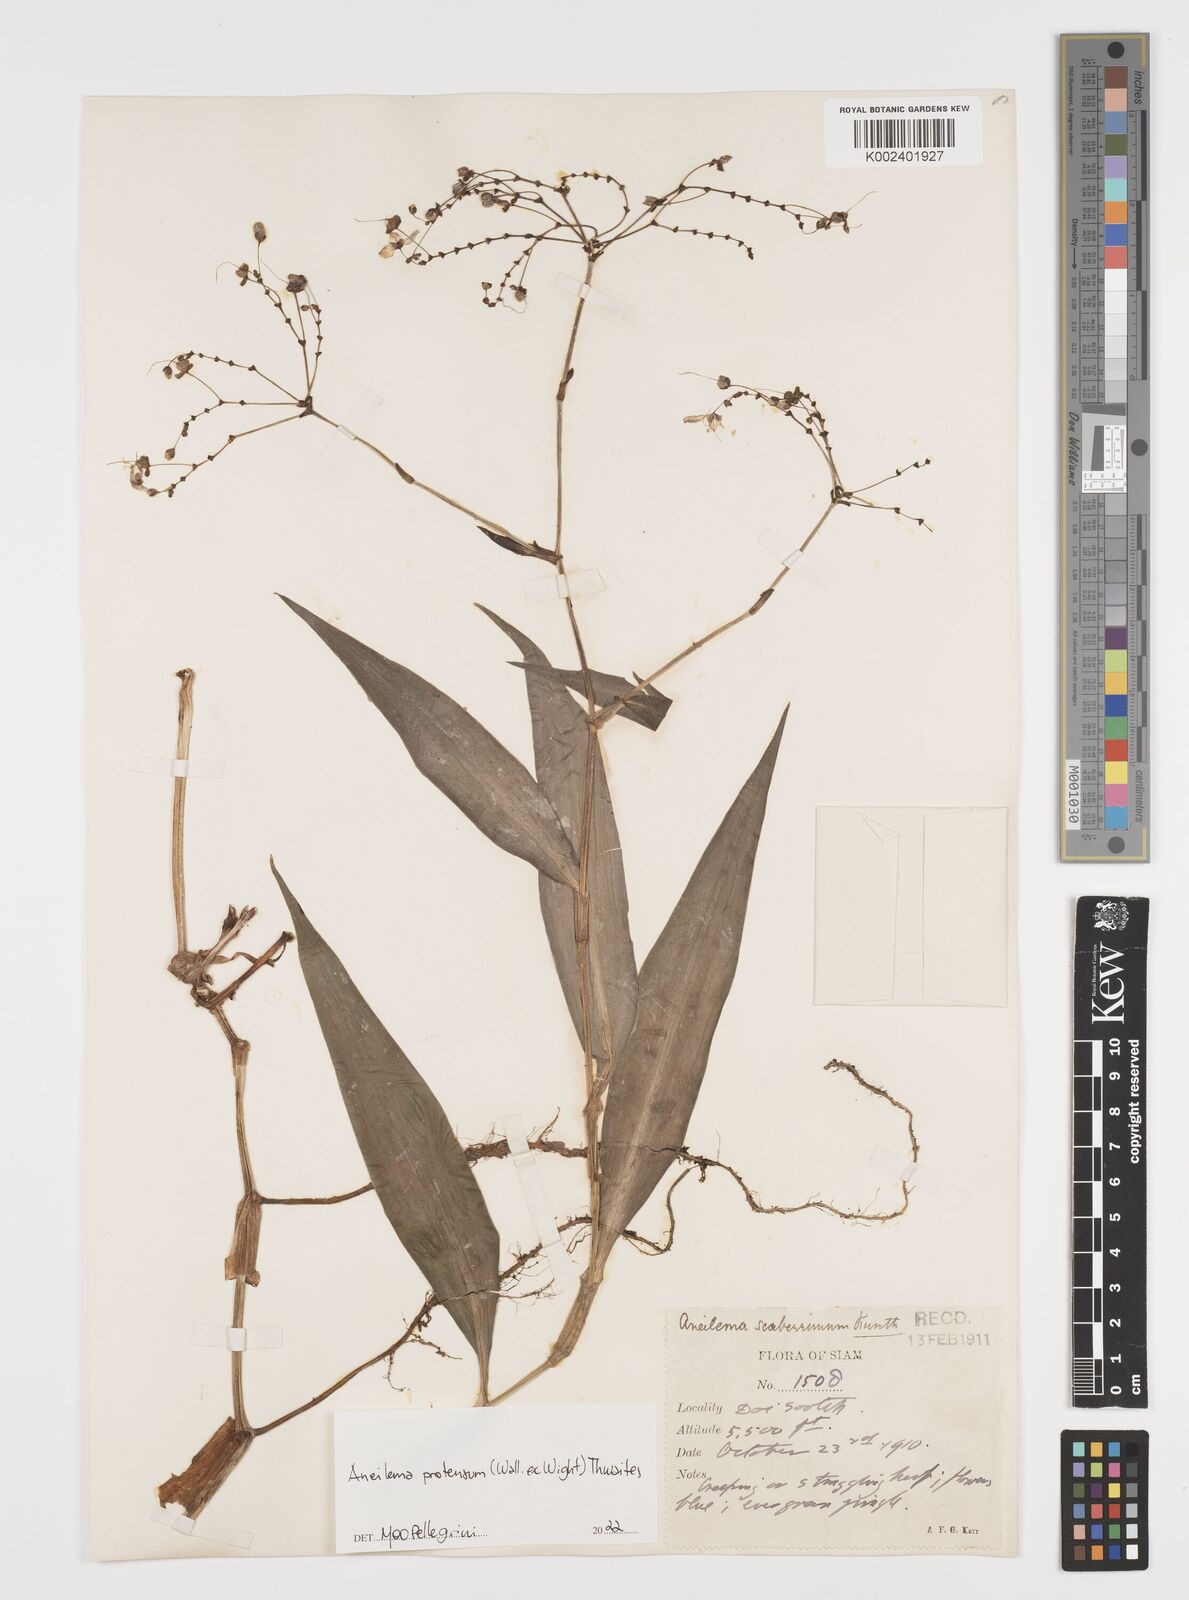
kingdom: Plantae
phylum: Tracheophyta
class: Liliopsida
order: Commelinales
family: Commelinaceae
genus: Rhopalephora
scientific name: Rhopalephora
